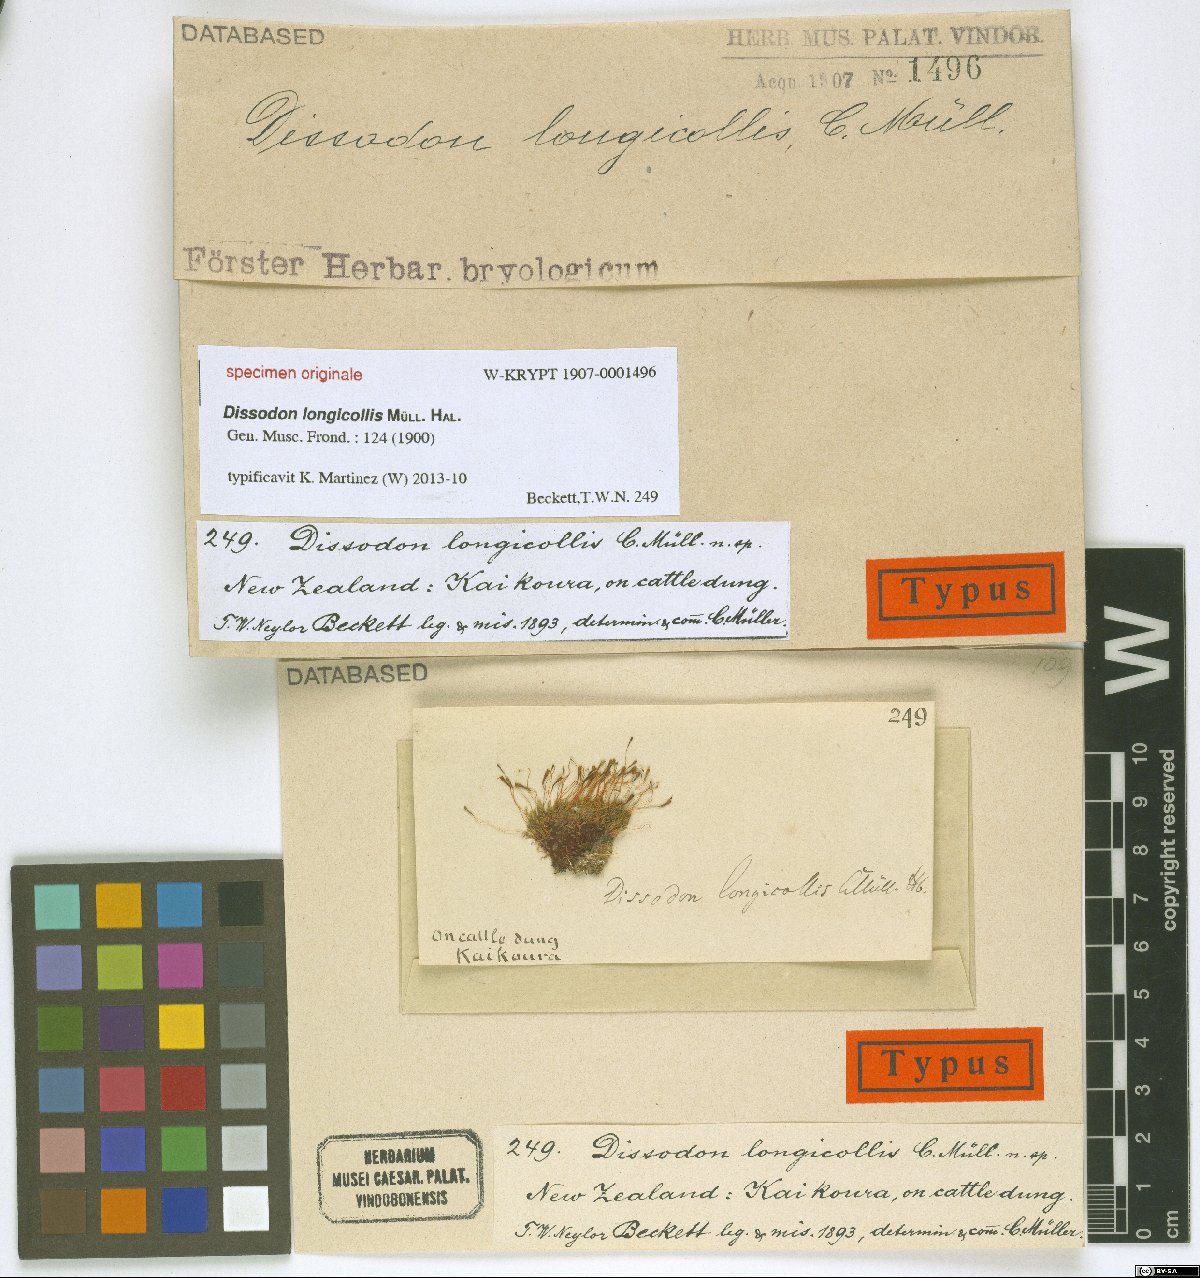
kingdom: Plantae
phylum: Bryophyta
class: Bryopsida
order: Splachnales
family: Splachnaceae
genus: Tayloria
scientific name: Tayloria
